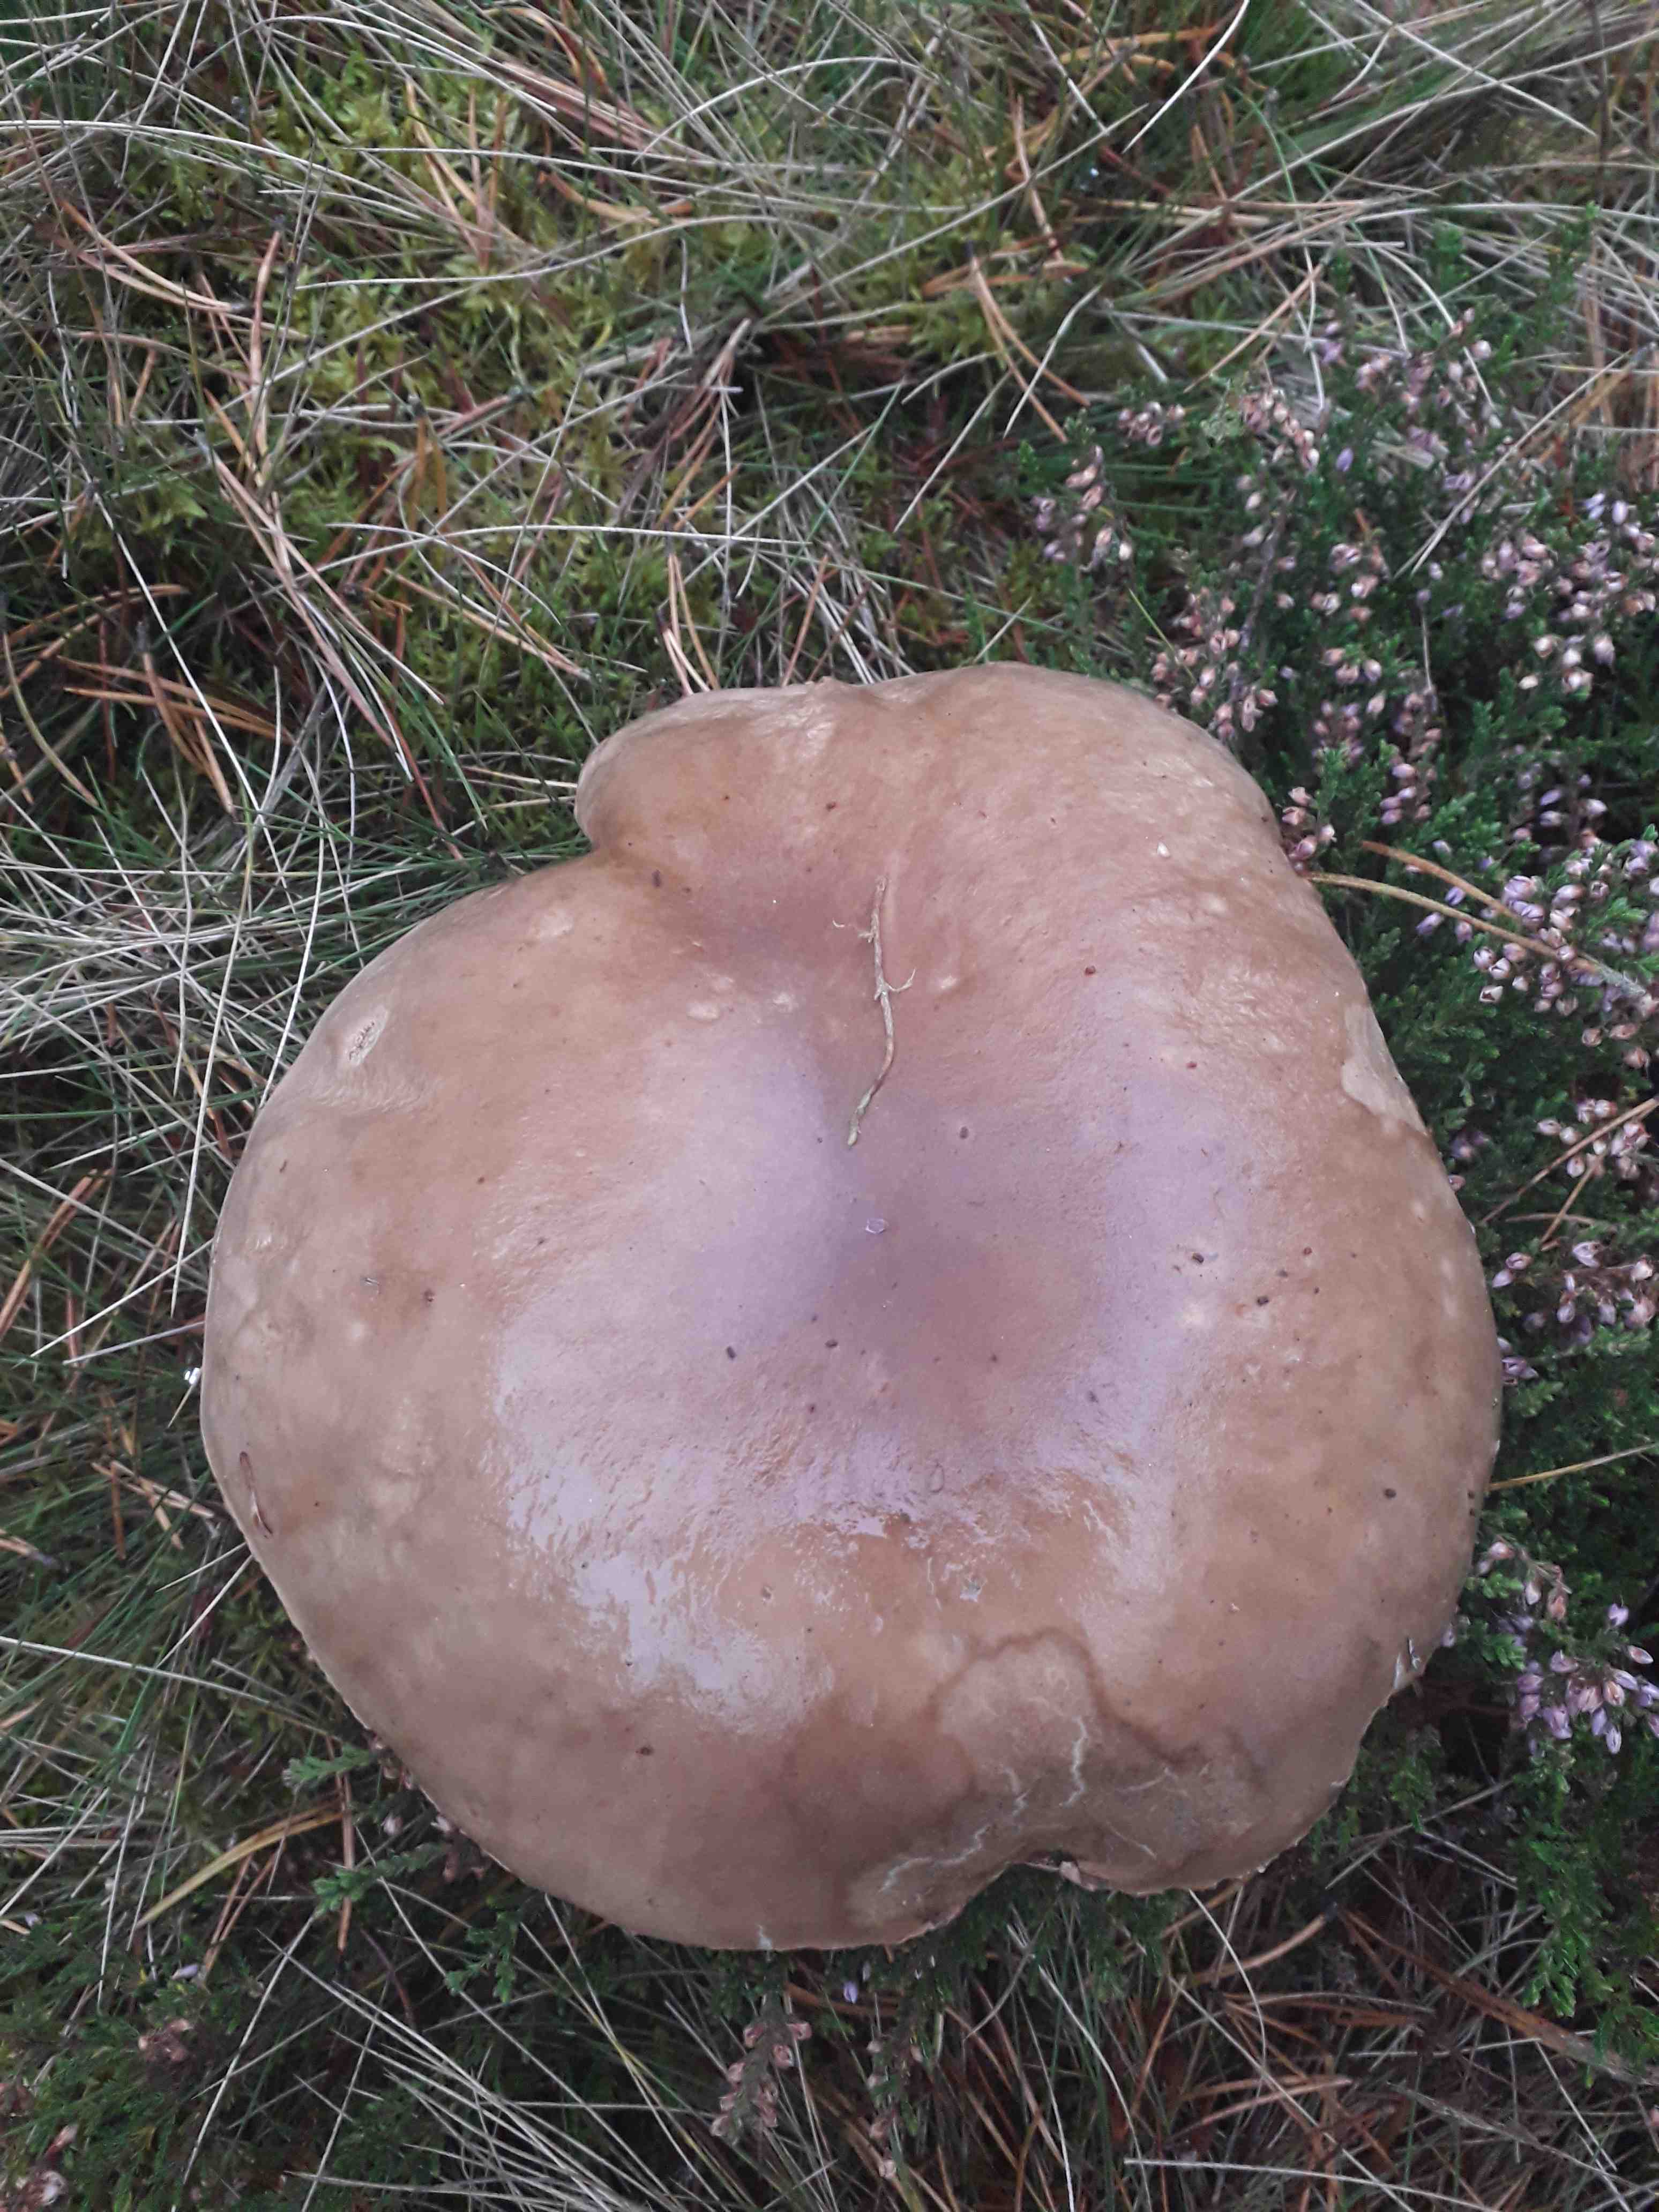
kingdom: Fungi
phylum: Basidiomycota
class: Agaricomycetes
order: Boletales
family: Boletaceae
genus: Boletus
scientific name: Boletus edulis
